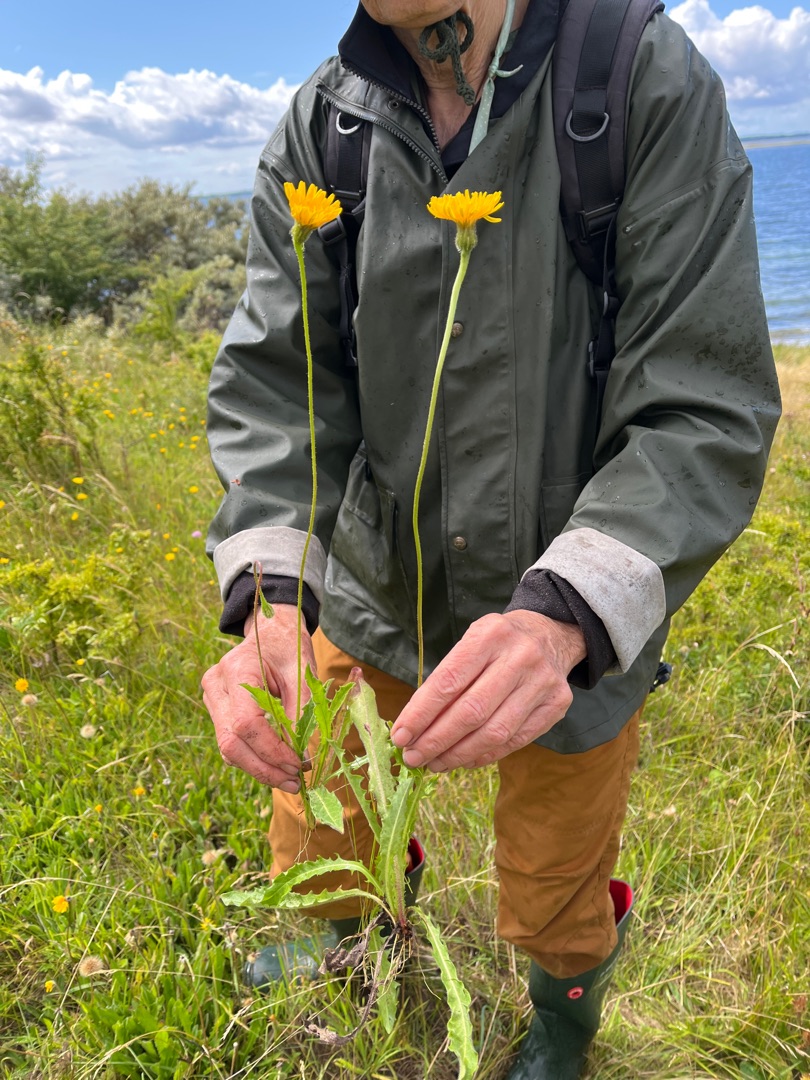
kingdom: Plantae
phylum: Tracheophyta
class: Magnoliopsida
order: Asterales
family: Asteraceae
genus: Leontodon
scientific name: Leontodon hispidus
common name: Stivhåret borst
